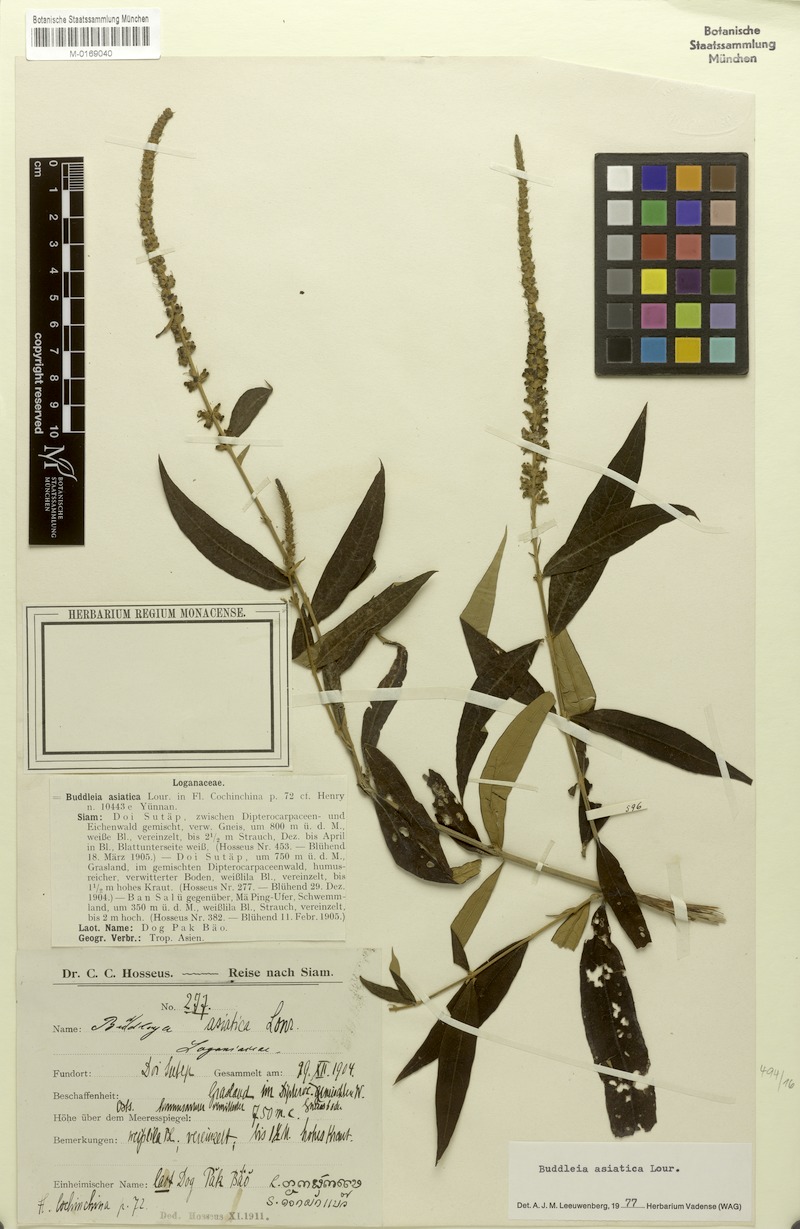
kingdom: Plantae
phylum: Tracheophyta
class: Magnoliopsida
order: Lamiales
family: Scrophulariaceae
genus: Buddleja
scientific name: Buddleja asiatica
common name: Dog tail
